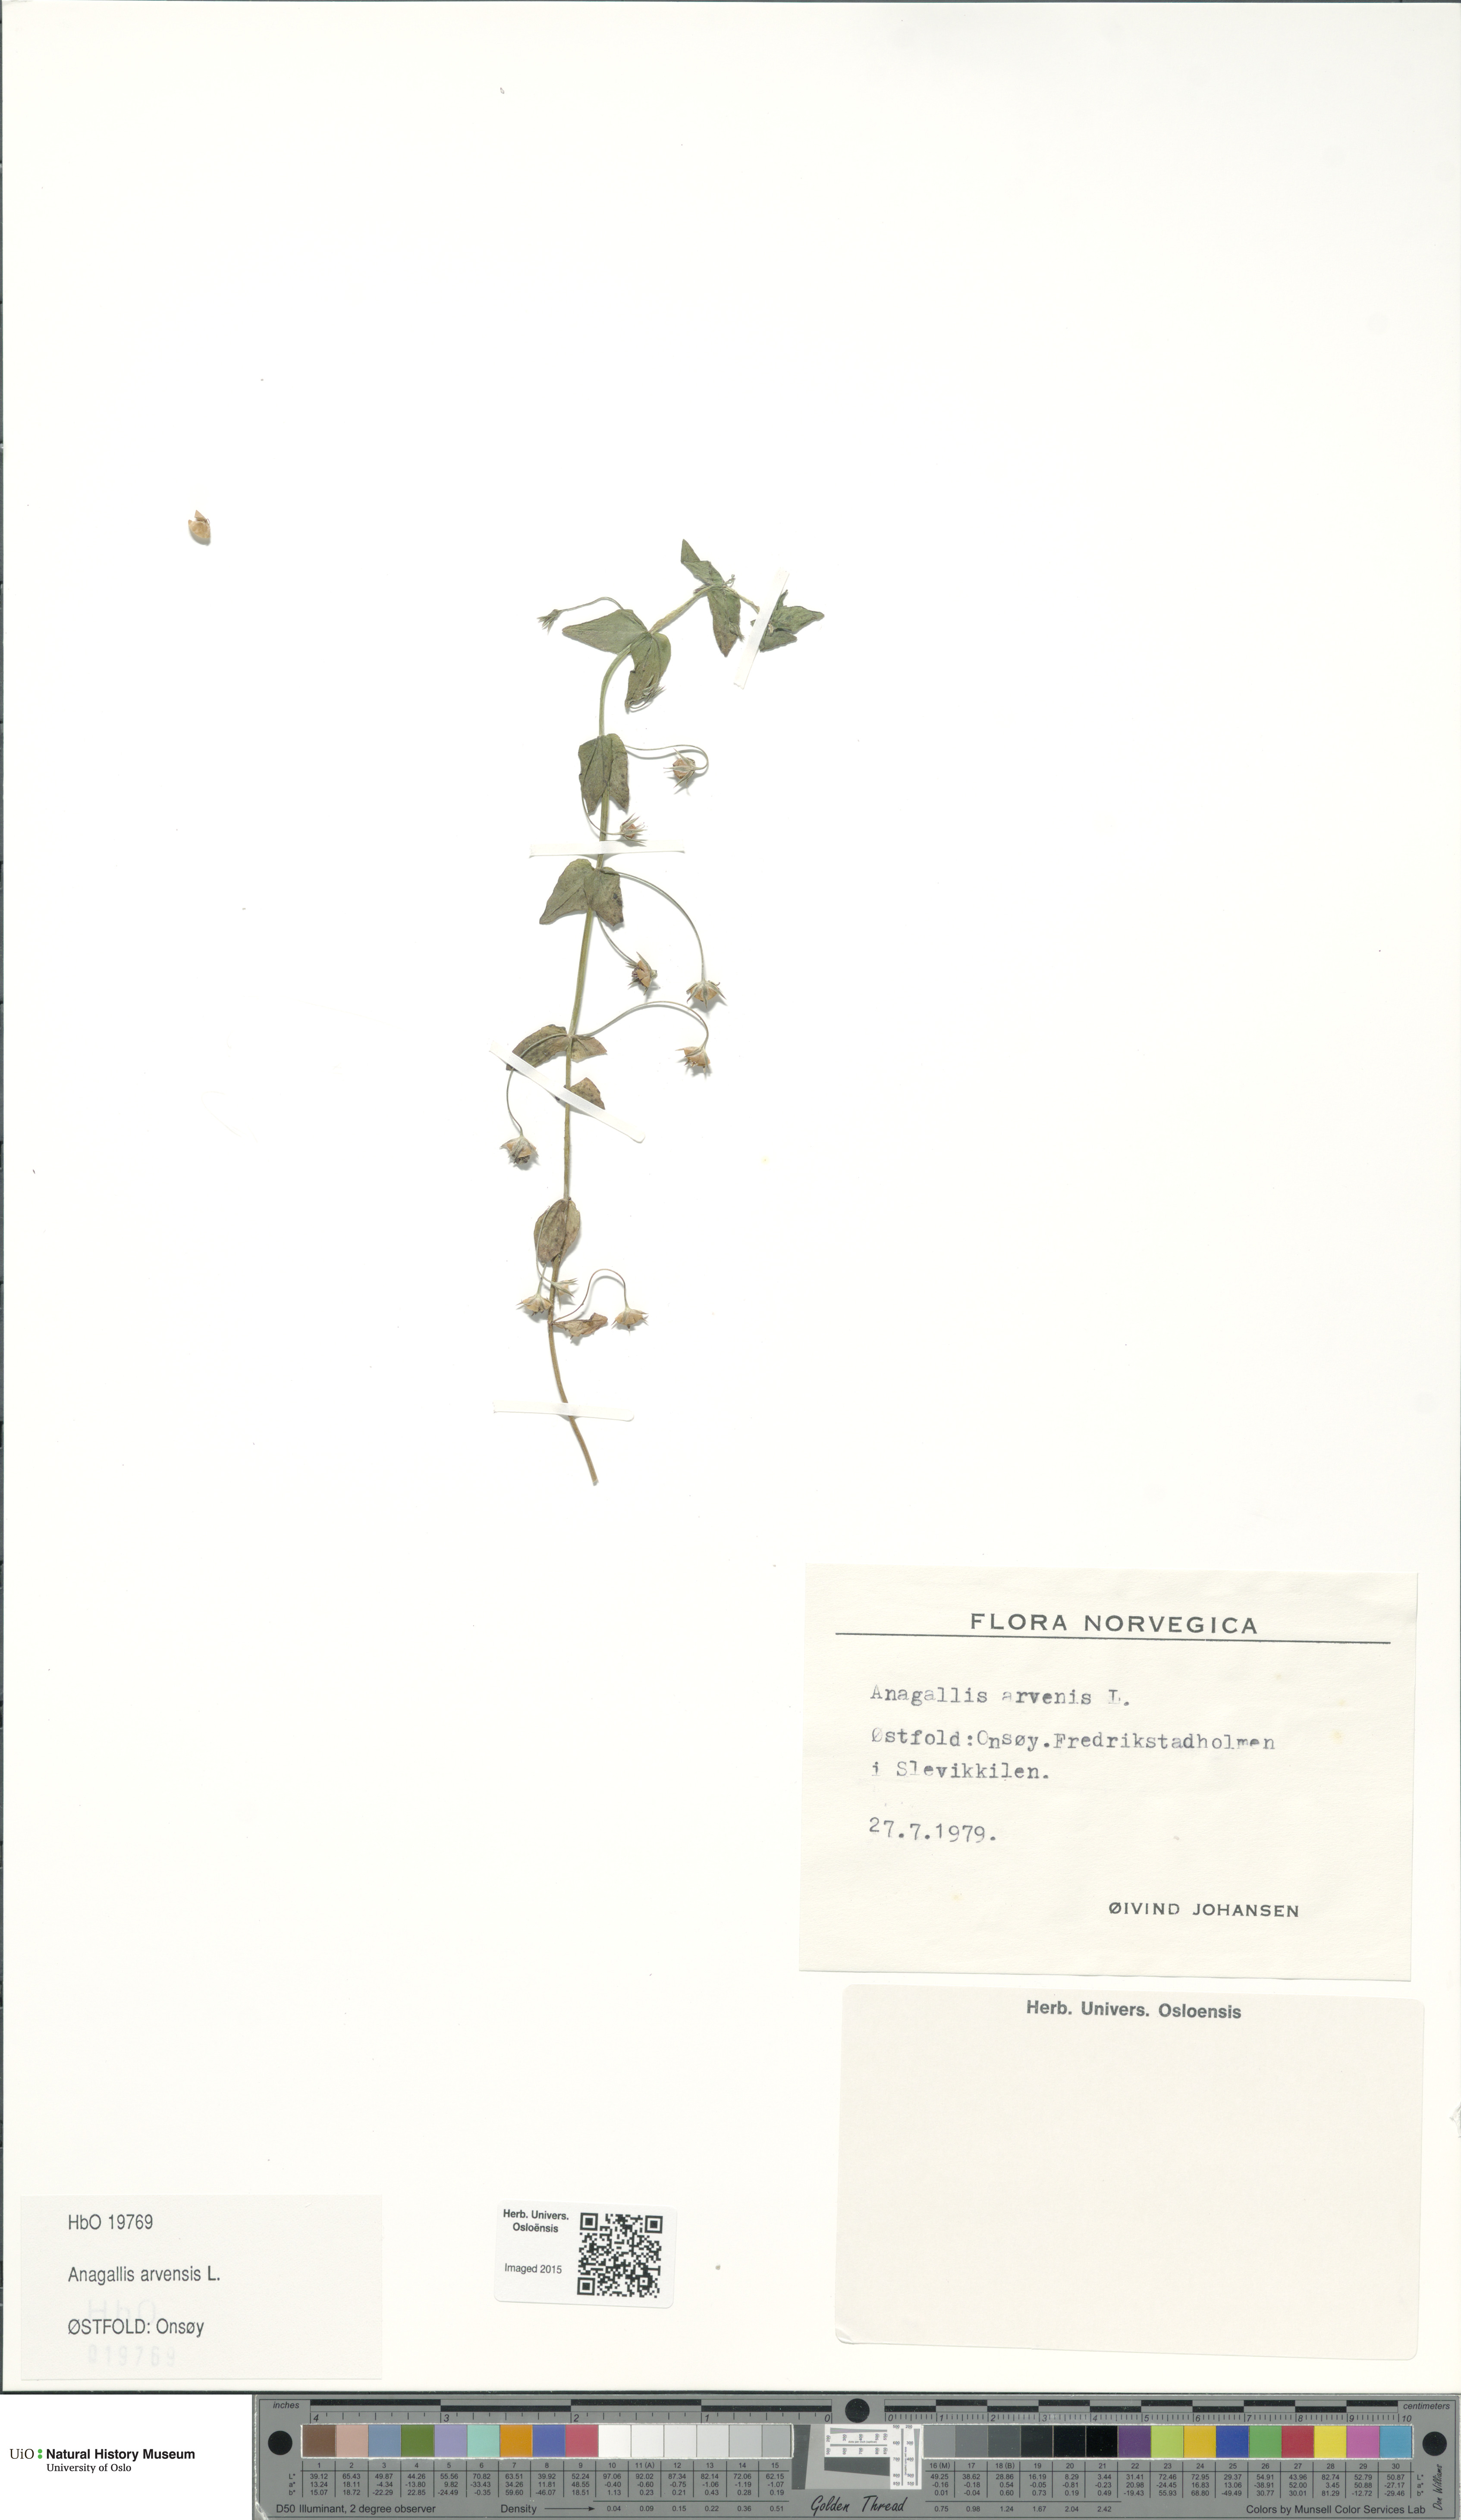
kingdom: Plantae
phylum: Tracheophyta
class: Magnoliopsida
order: Ericales
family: Primulaceae
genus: Lysimachia
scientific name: Lysimachia arvensis
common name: Scarlet pimpernel
